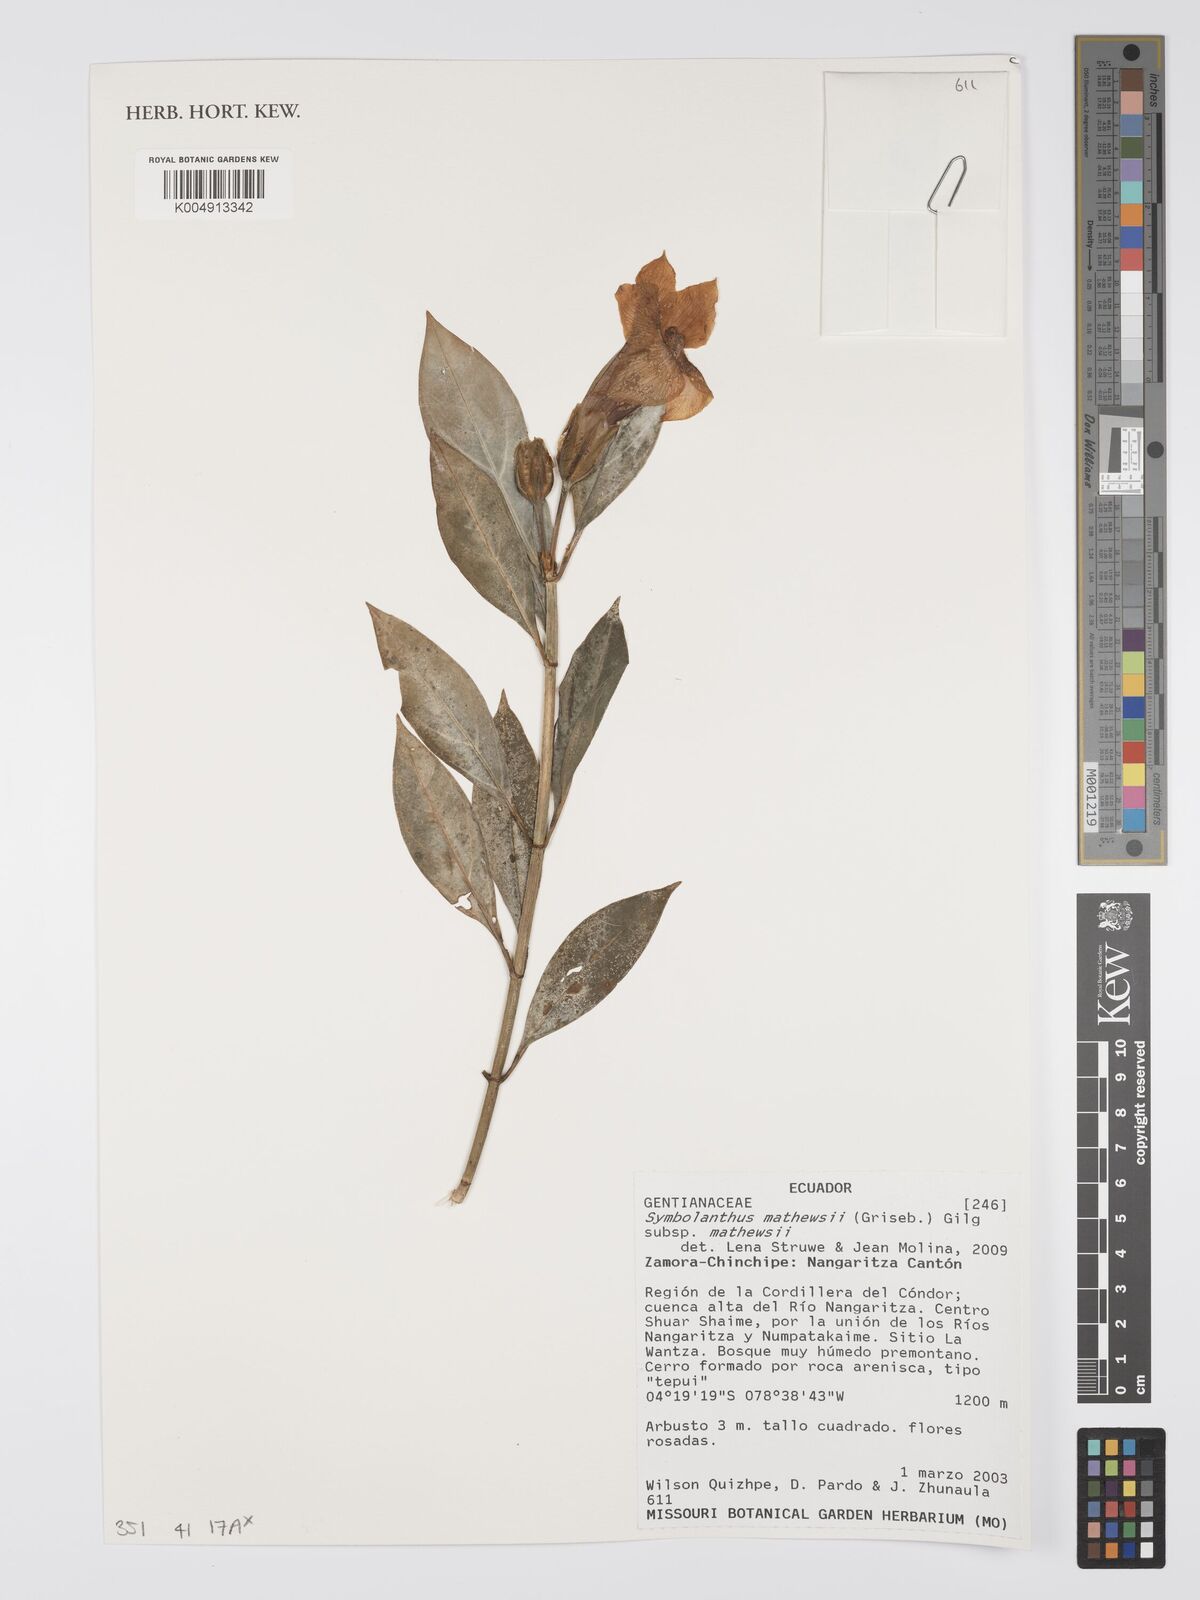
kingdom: Plantae
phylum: Tracheophyta
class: Magnoliopsida
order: Gentianales
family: Gentianaceae
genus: Symbolanthus
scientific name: Symbolanthus mathewsii
